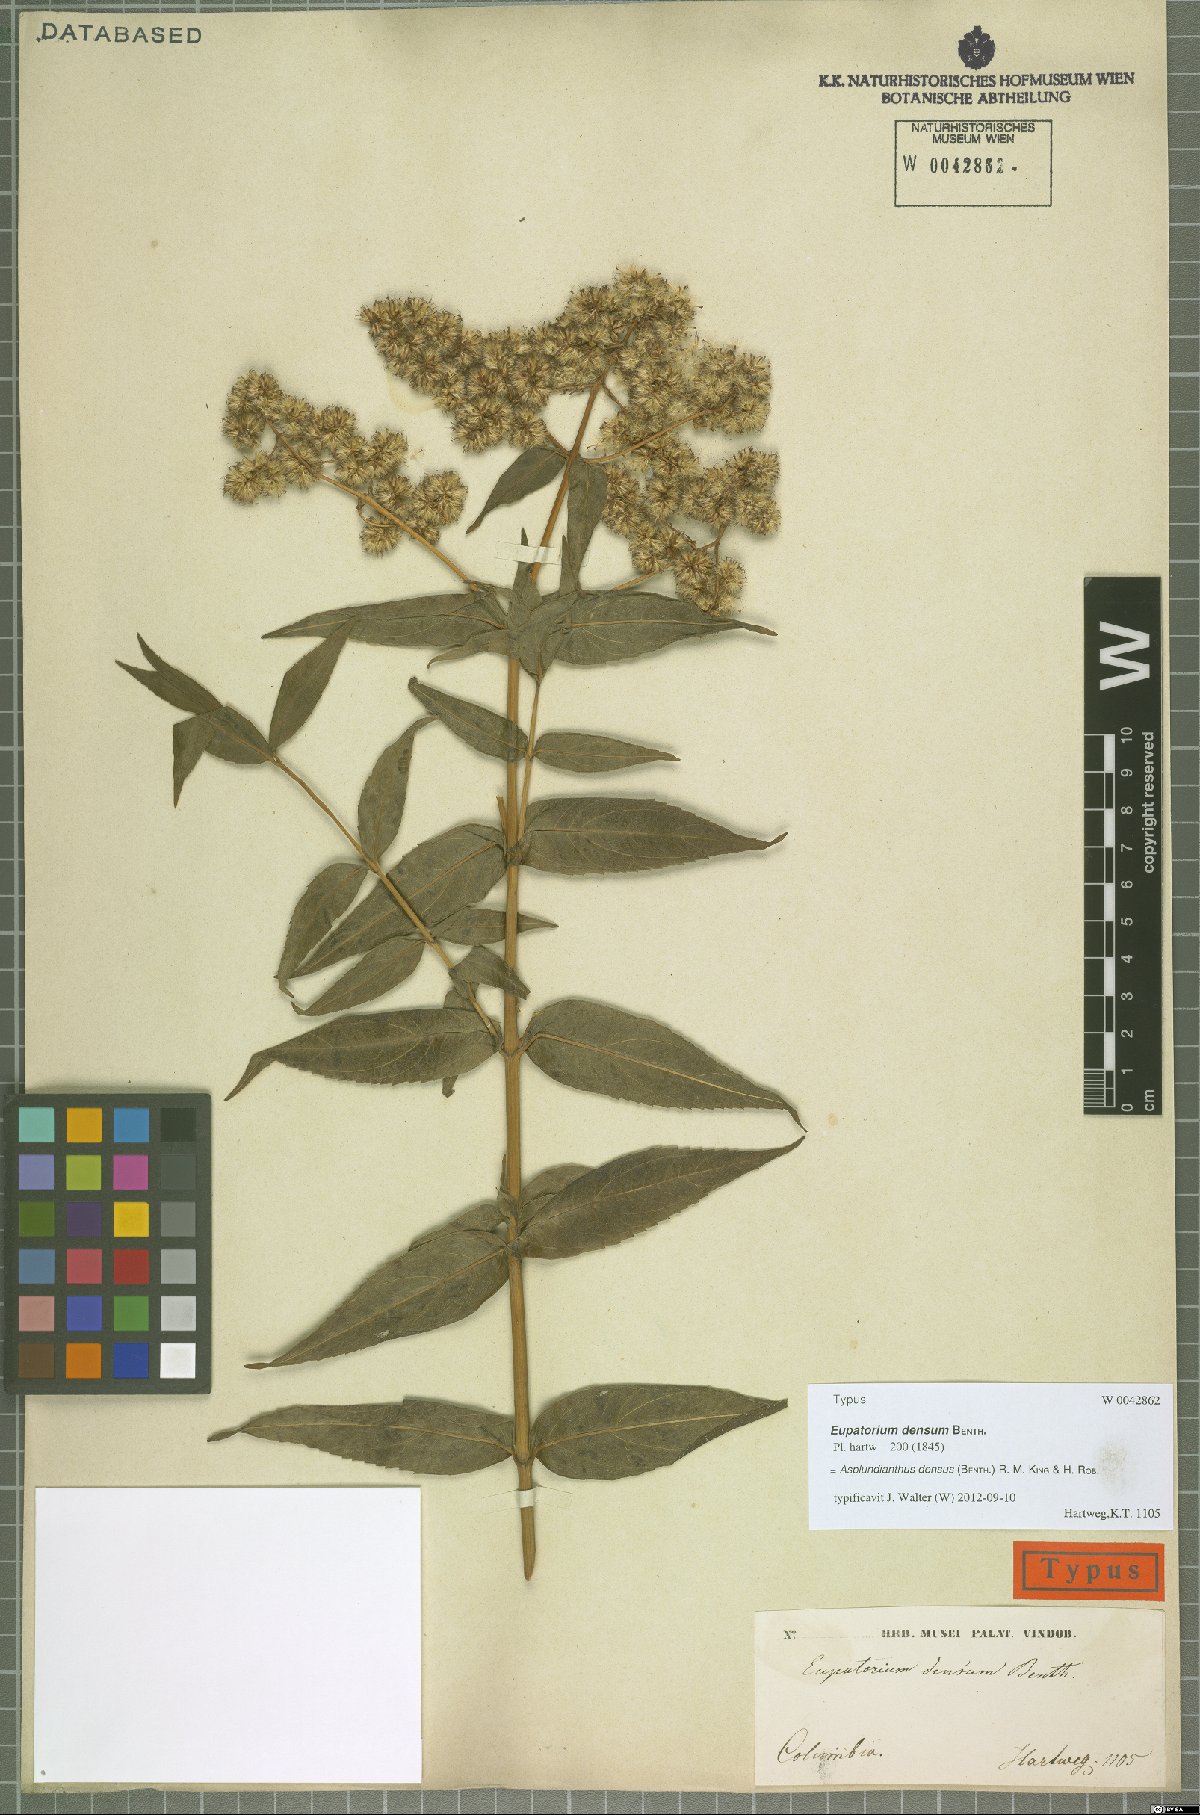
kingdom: Plantae
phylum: Tracheophyta
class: Magnoliopsida
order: Asterales
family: Asteraceae
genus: Asplundianthus
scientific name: Asplundianthus densus
